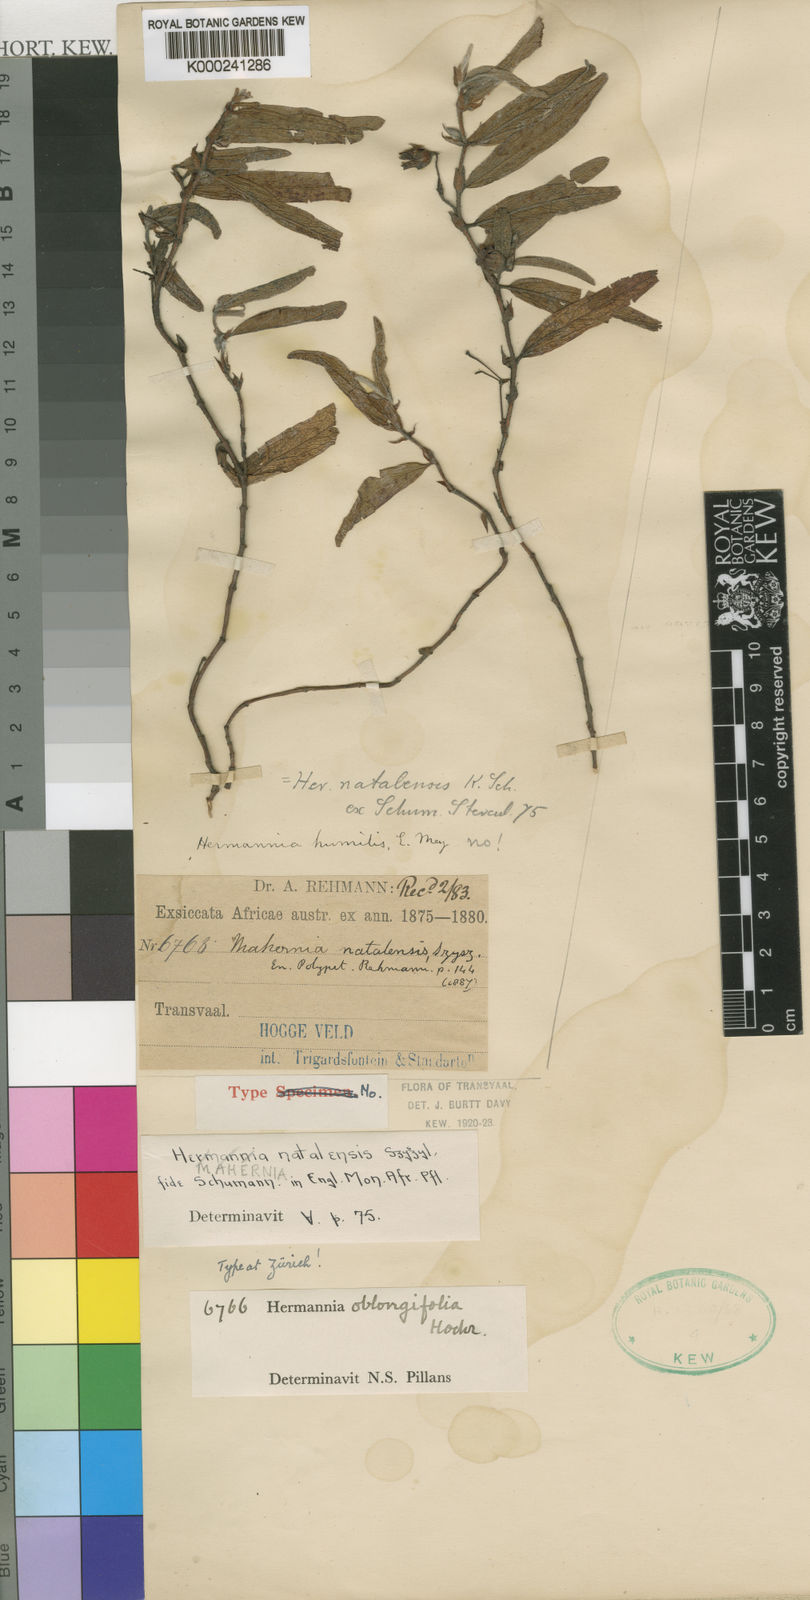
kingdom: Plantae
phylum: Tracheophyta
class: Magnoliopsida
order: Malvales
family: Malvaceae
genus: Hermannia
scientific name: Hermannia oblongifolia
